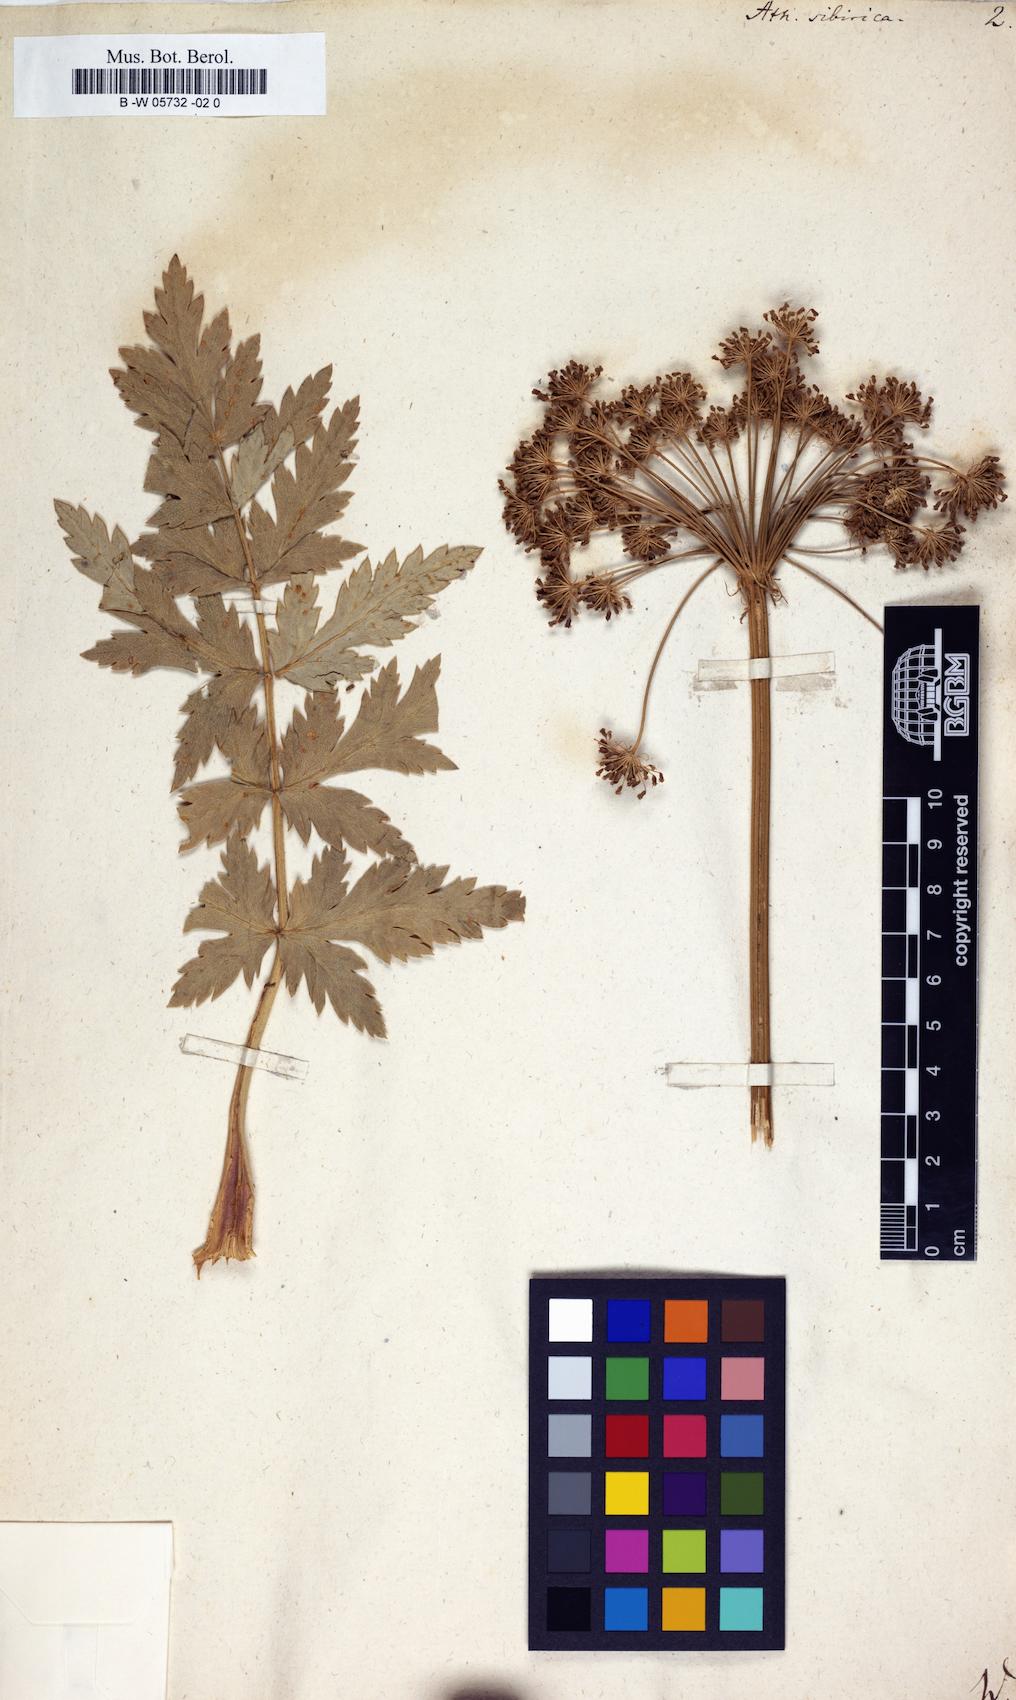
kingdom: Plantae
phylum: Tracheophyta
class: Magnoliopsida
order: Apiales
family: Apiaceae
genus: Seseli
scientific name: Seseli libanotis
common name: Mooncarrot
